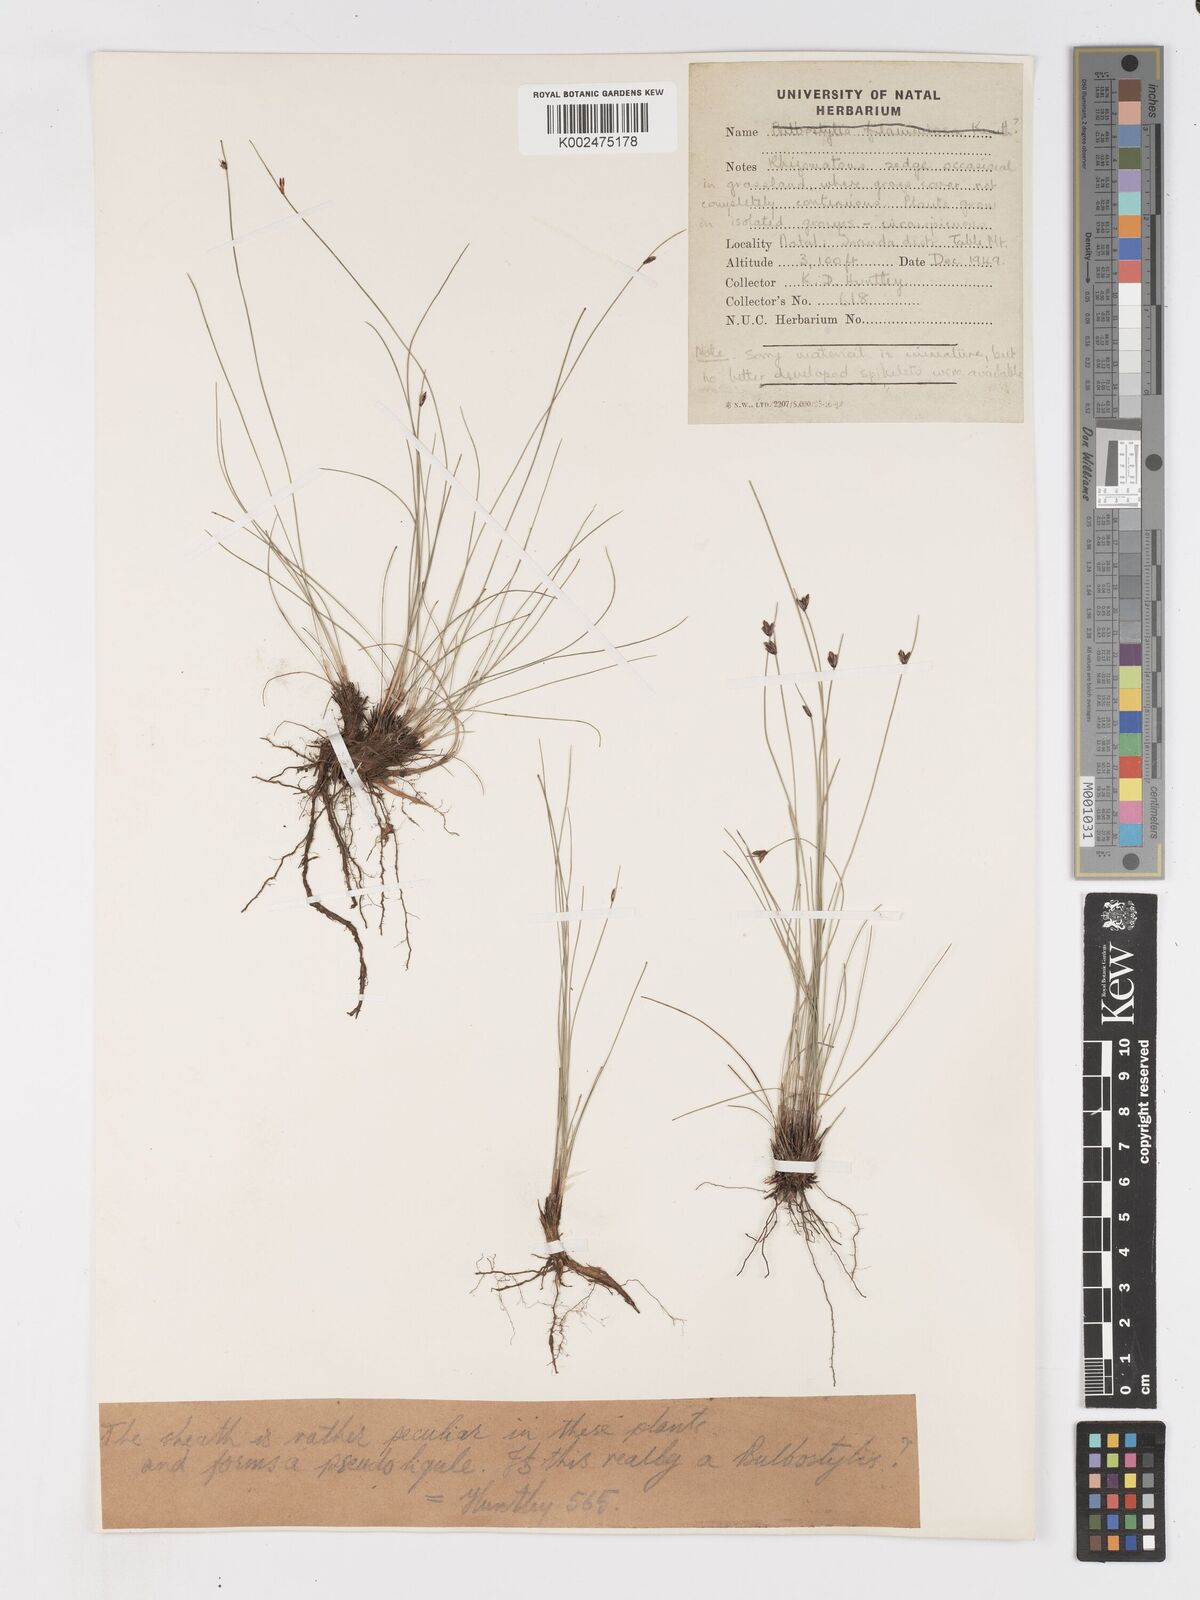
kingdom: Plantae
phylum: Tracheophyta
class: Liliopsida
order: Poales
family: Cyperaceae
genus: Ficinia
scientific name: Ficinia stolonifera
